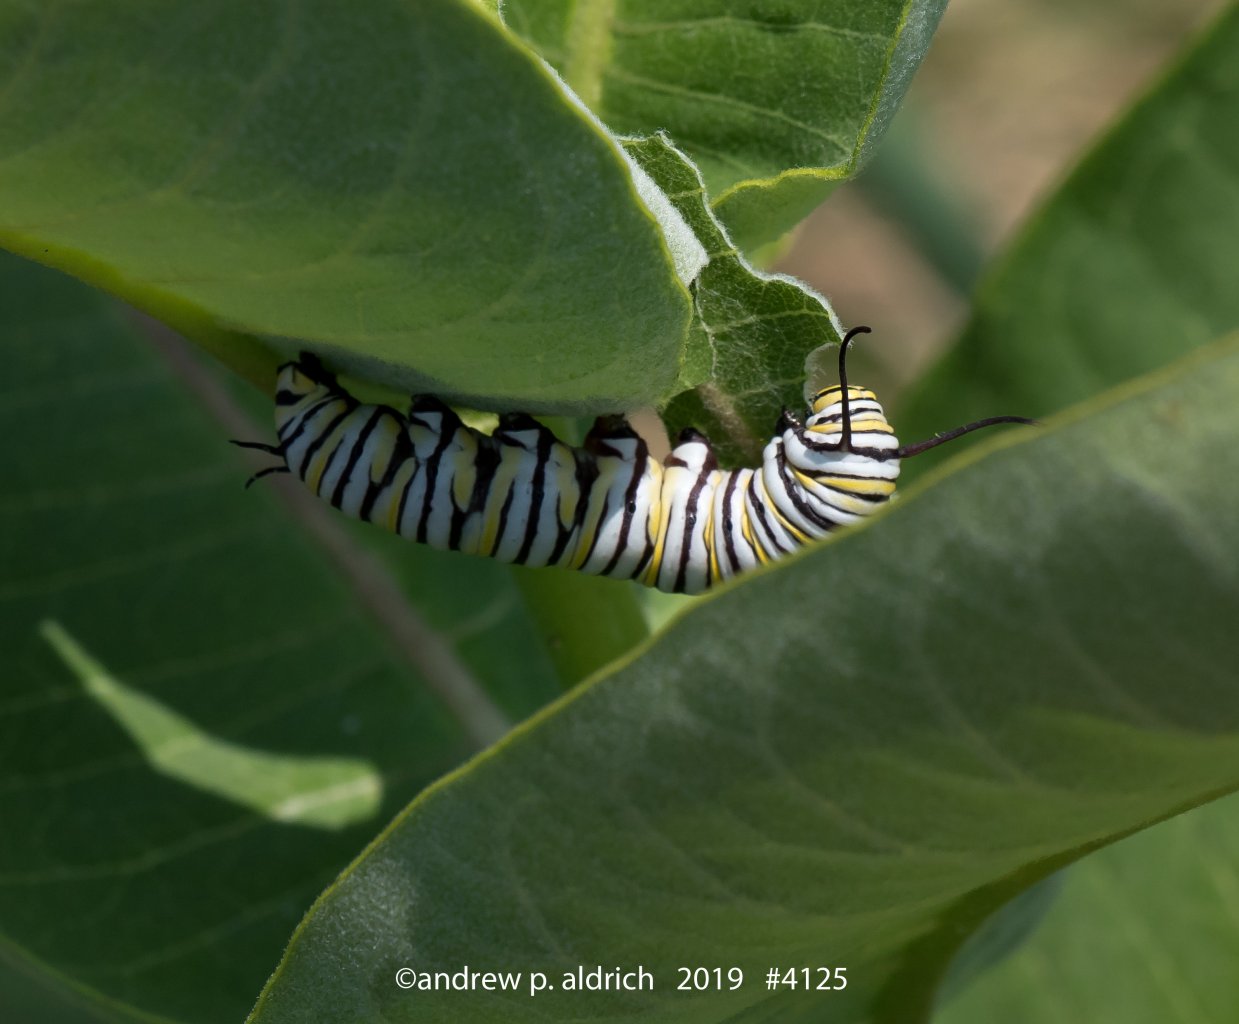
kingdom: Animalia
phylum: Arthropoda
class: Insecta
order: Lepidoptera
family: Nymphalidae
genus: Danaus
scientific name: Danaus plexippus
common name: Monarch
